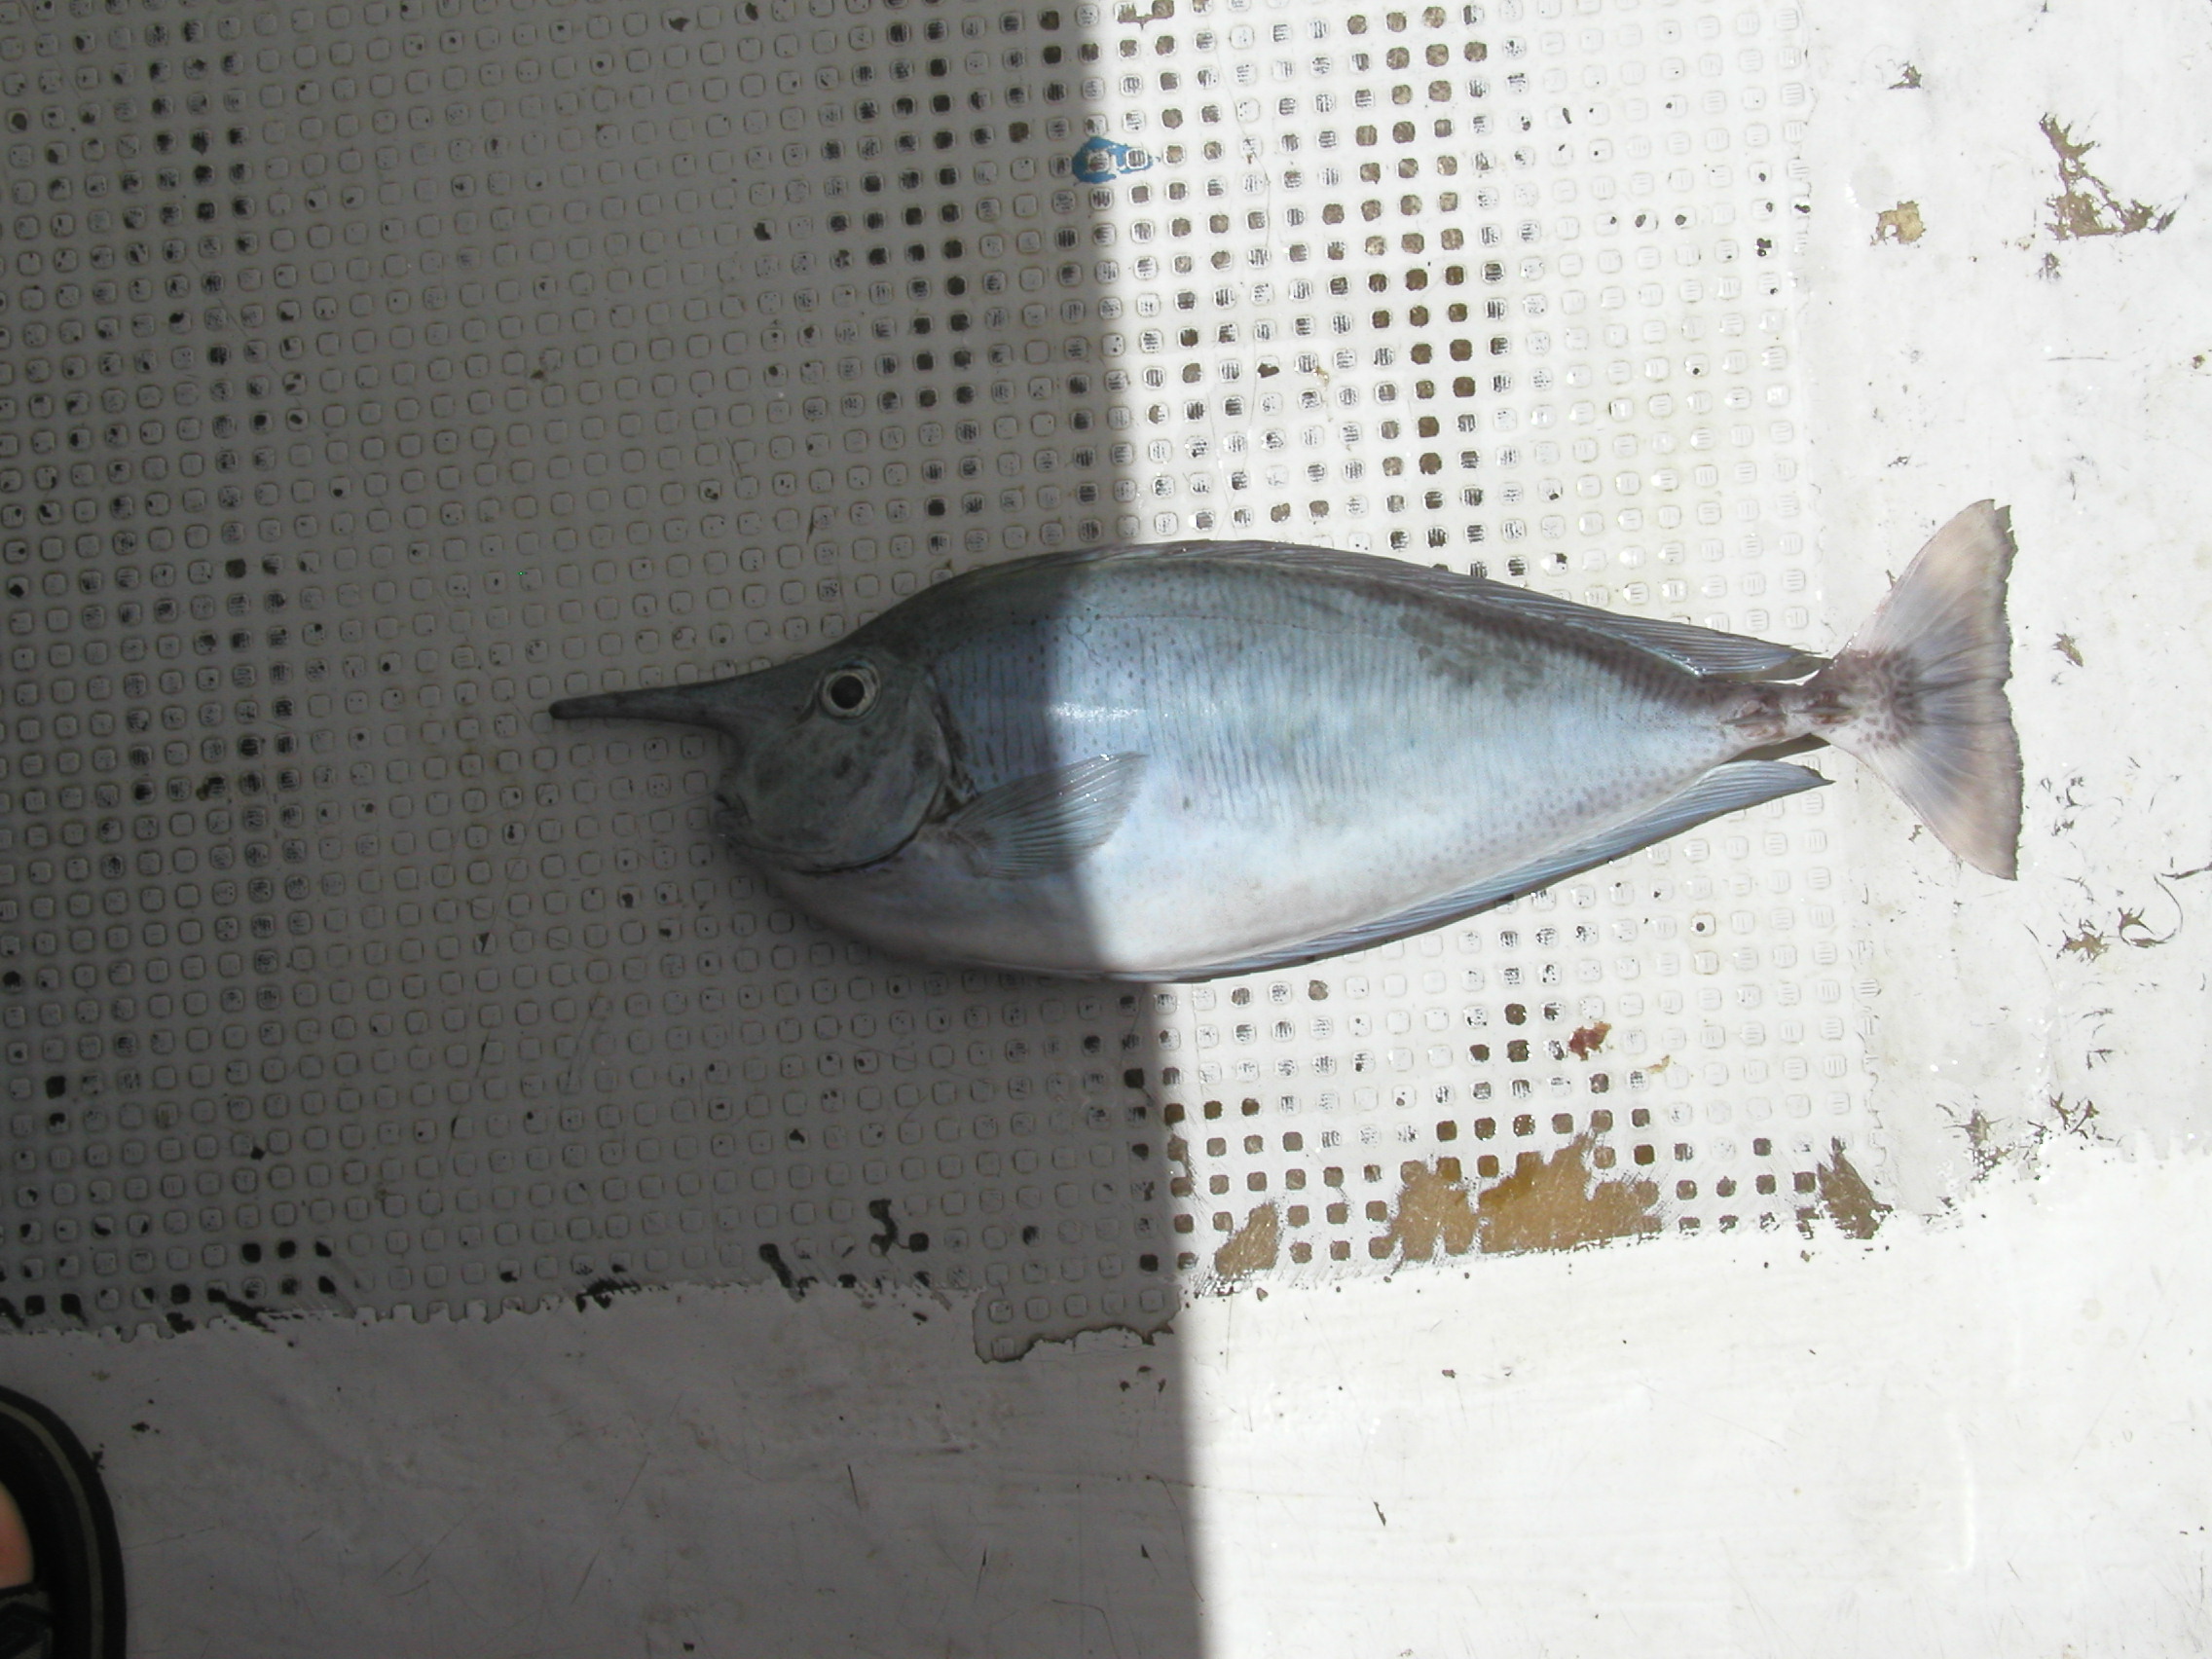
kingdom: Animalia
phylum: Chordata
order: Perciformes
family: Acanthuridae
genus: Naso
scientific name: Naso brevirostris
